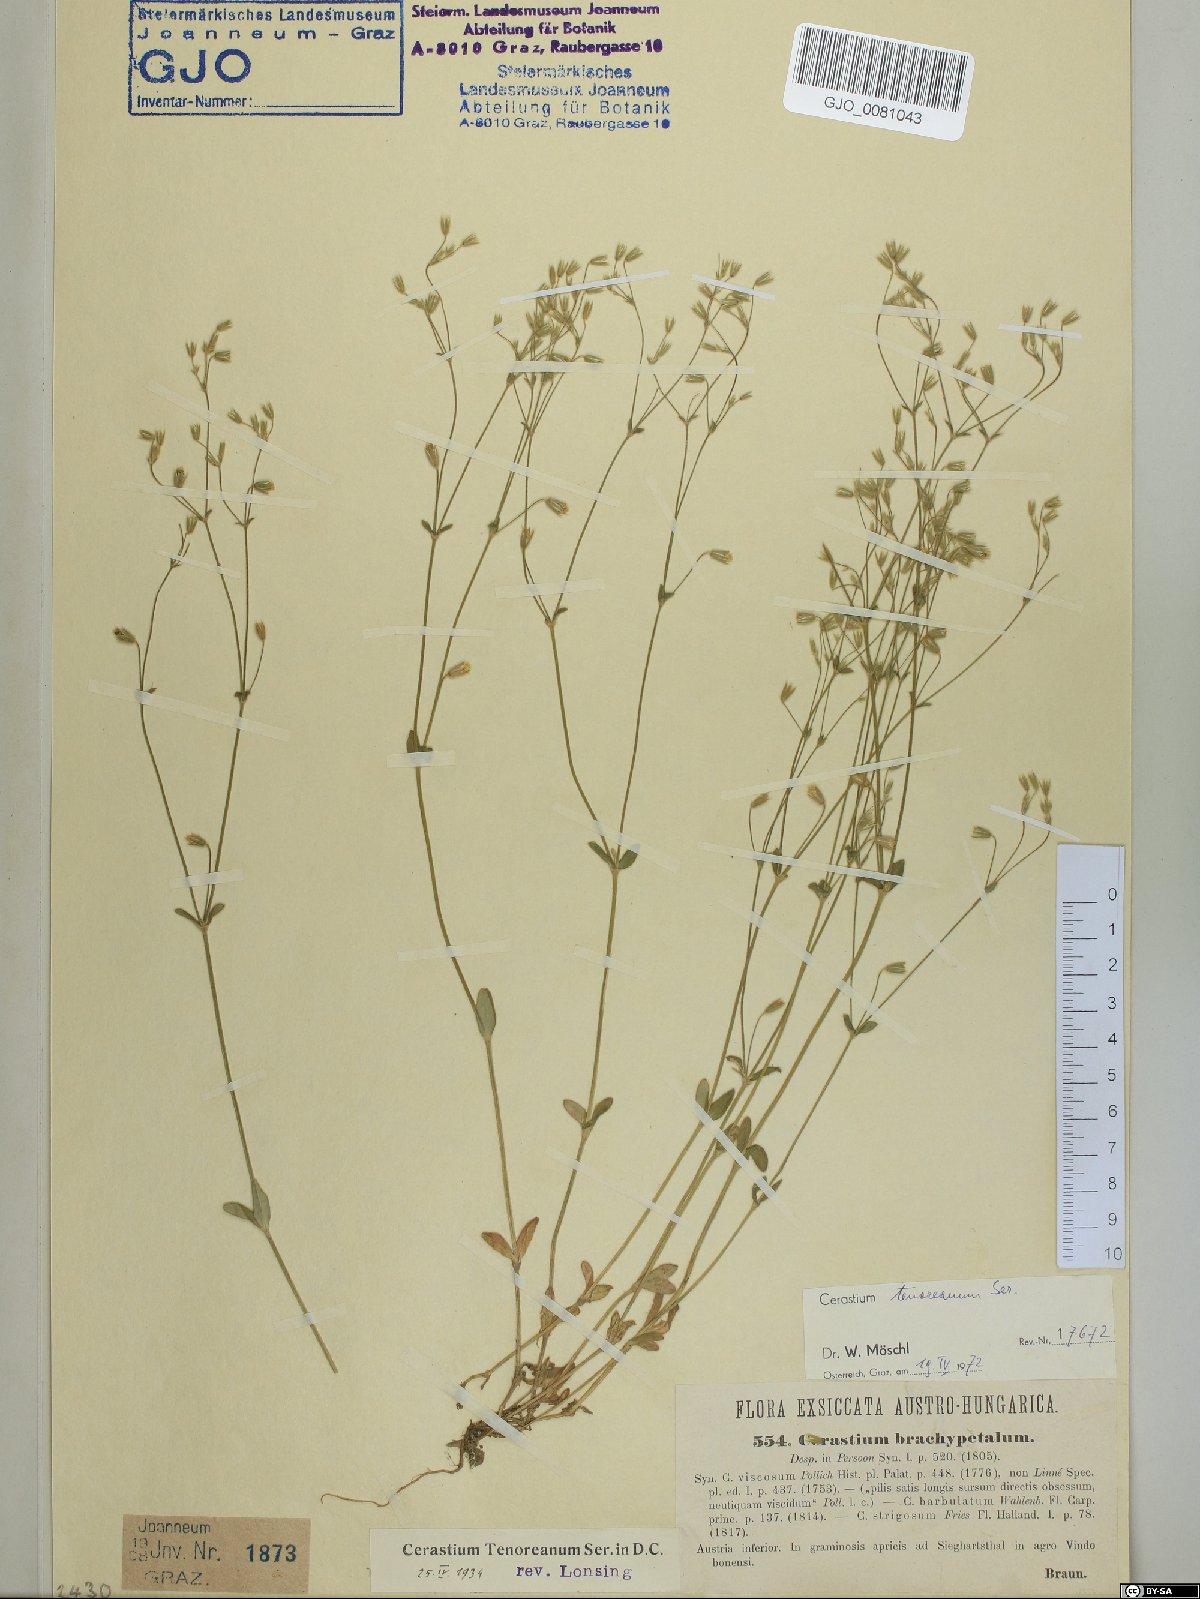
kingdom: Plantae
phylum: Tracheophyta
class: Magnoliopsida
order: Caryophyllales
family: Caryophyllaceae
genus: Cerastium
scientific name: Cerastium tenoreanum
